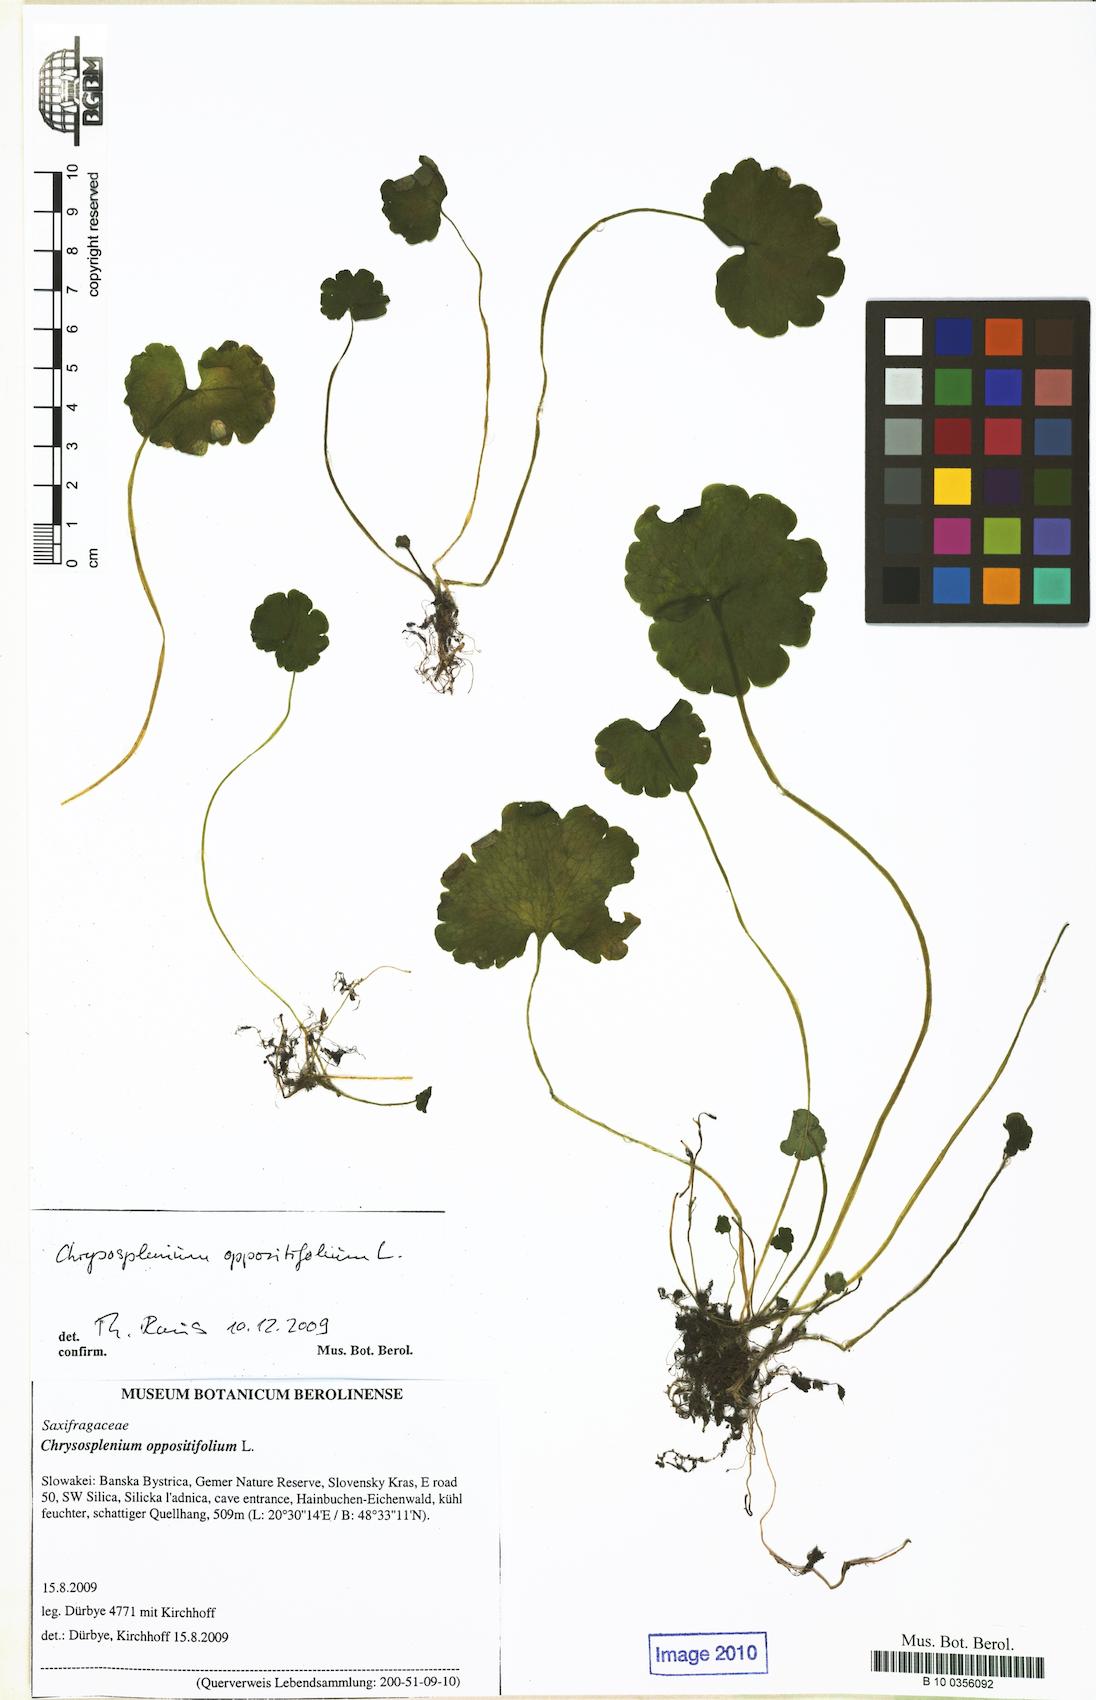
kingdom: Plantae
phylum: Tracheophyta
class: Magnoliopsida
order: Saxifragales
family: Saxifragaceae
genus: Chrysosplenium
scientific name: Chrysosplenium oppositifolium
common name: Opposite-leaved golden-saxifrage
